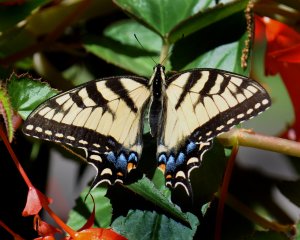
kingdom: Animalia
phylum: Arthropoda
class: Insecta
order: Lepidoptera
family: Papilionidae
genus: Pterourus
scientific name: Pterourus glaucus
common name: Eastern Tiger Swallowtail
